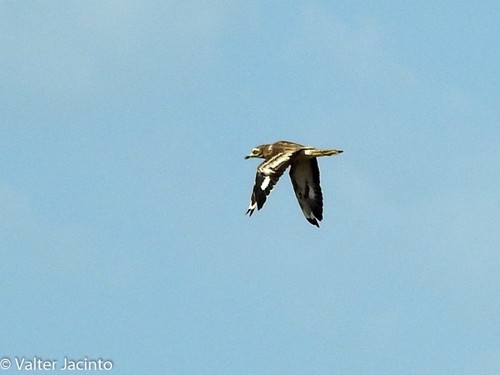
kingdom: Animalia
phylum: Chordata
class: Aves
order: Charadriiformes
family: Burhinidae
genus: Burhinus
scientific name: Burhinus oedicnemus
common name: Eurasian stone-curlew
